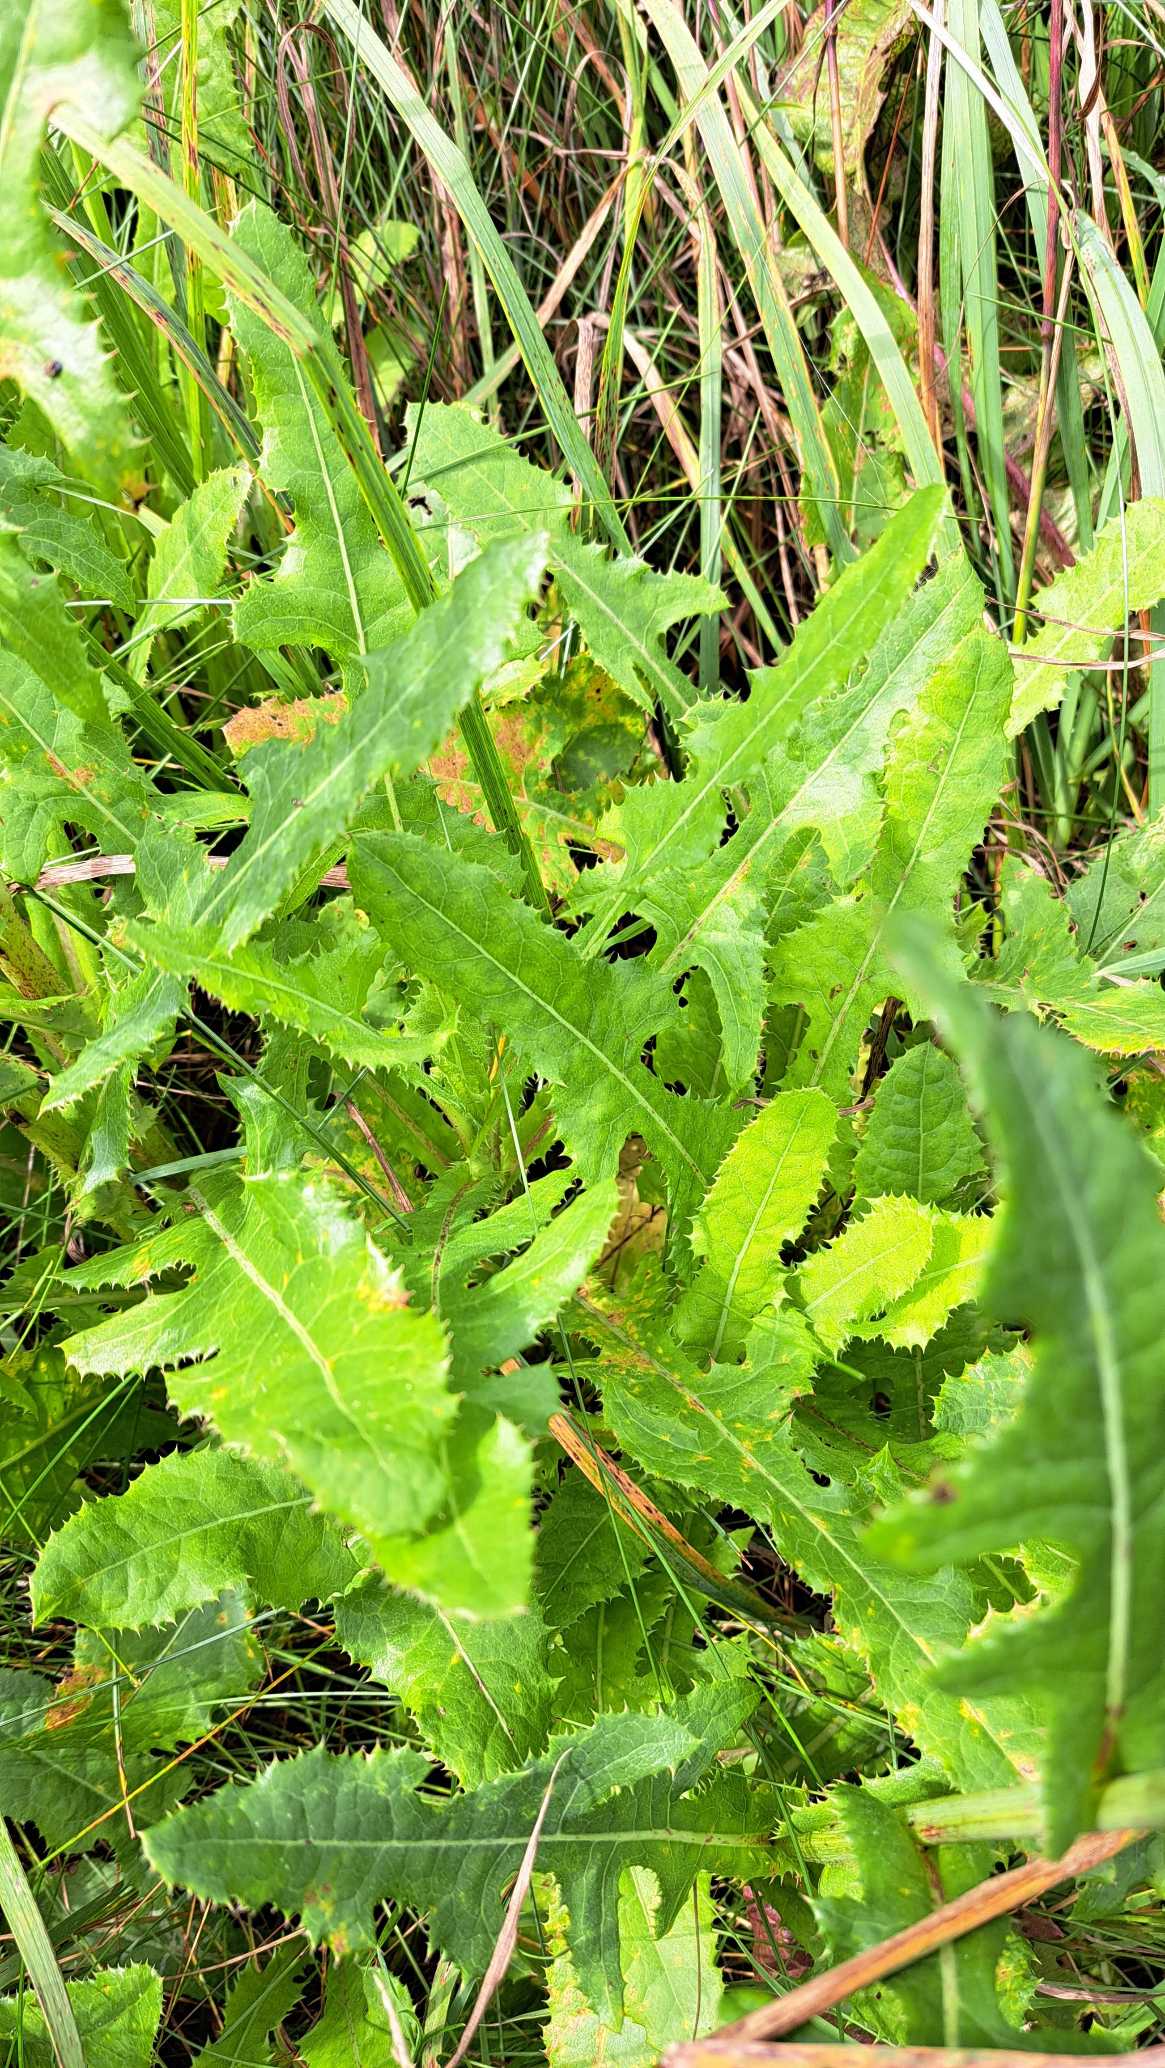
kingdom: Plantae
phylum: Tracheophyta
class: Magnoliopsida
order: Asterales
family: Asteraceae
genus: Sonchus
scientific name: Sonchus arvensis
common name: Ager-svinemælk
